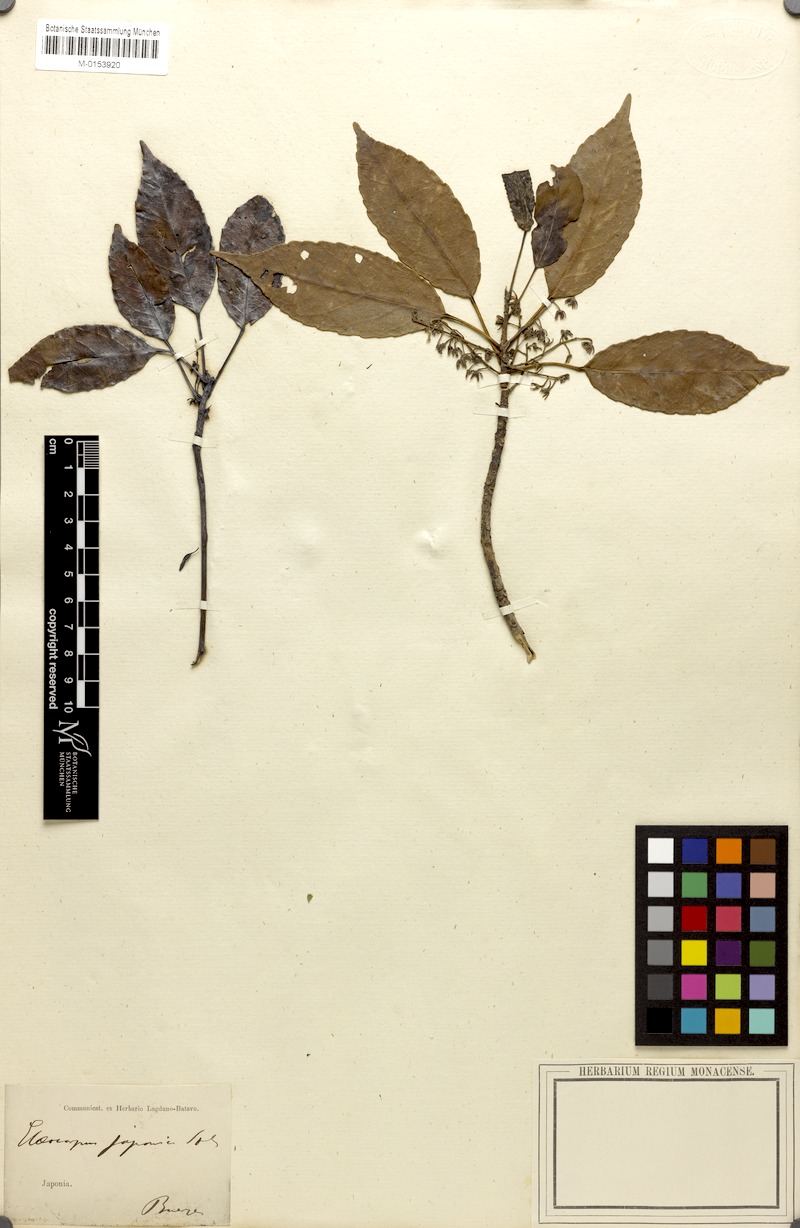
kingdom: Plantae
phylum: Tracheophyta
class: Magnoliopsida
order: Oxalidales
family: Elaeocarpaceae
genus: Elaeocarpus
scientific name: Elaeocarpus japonicus
